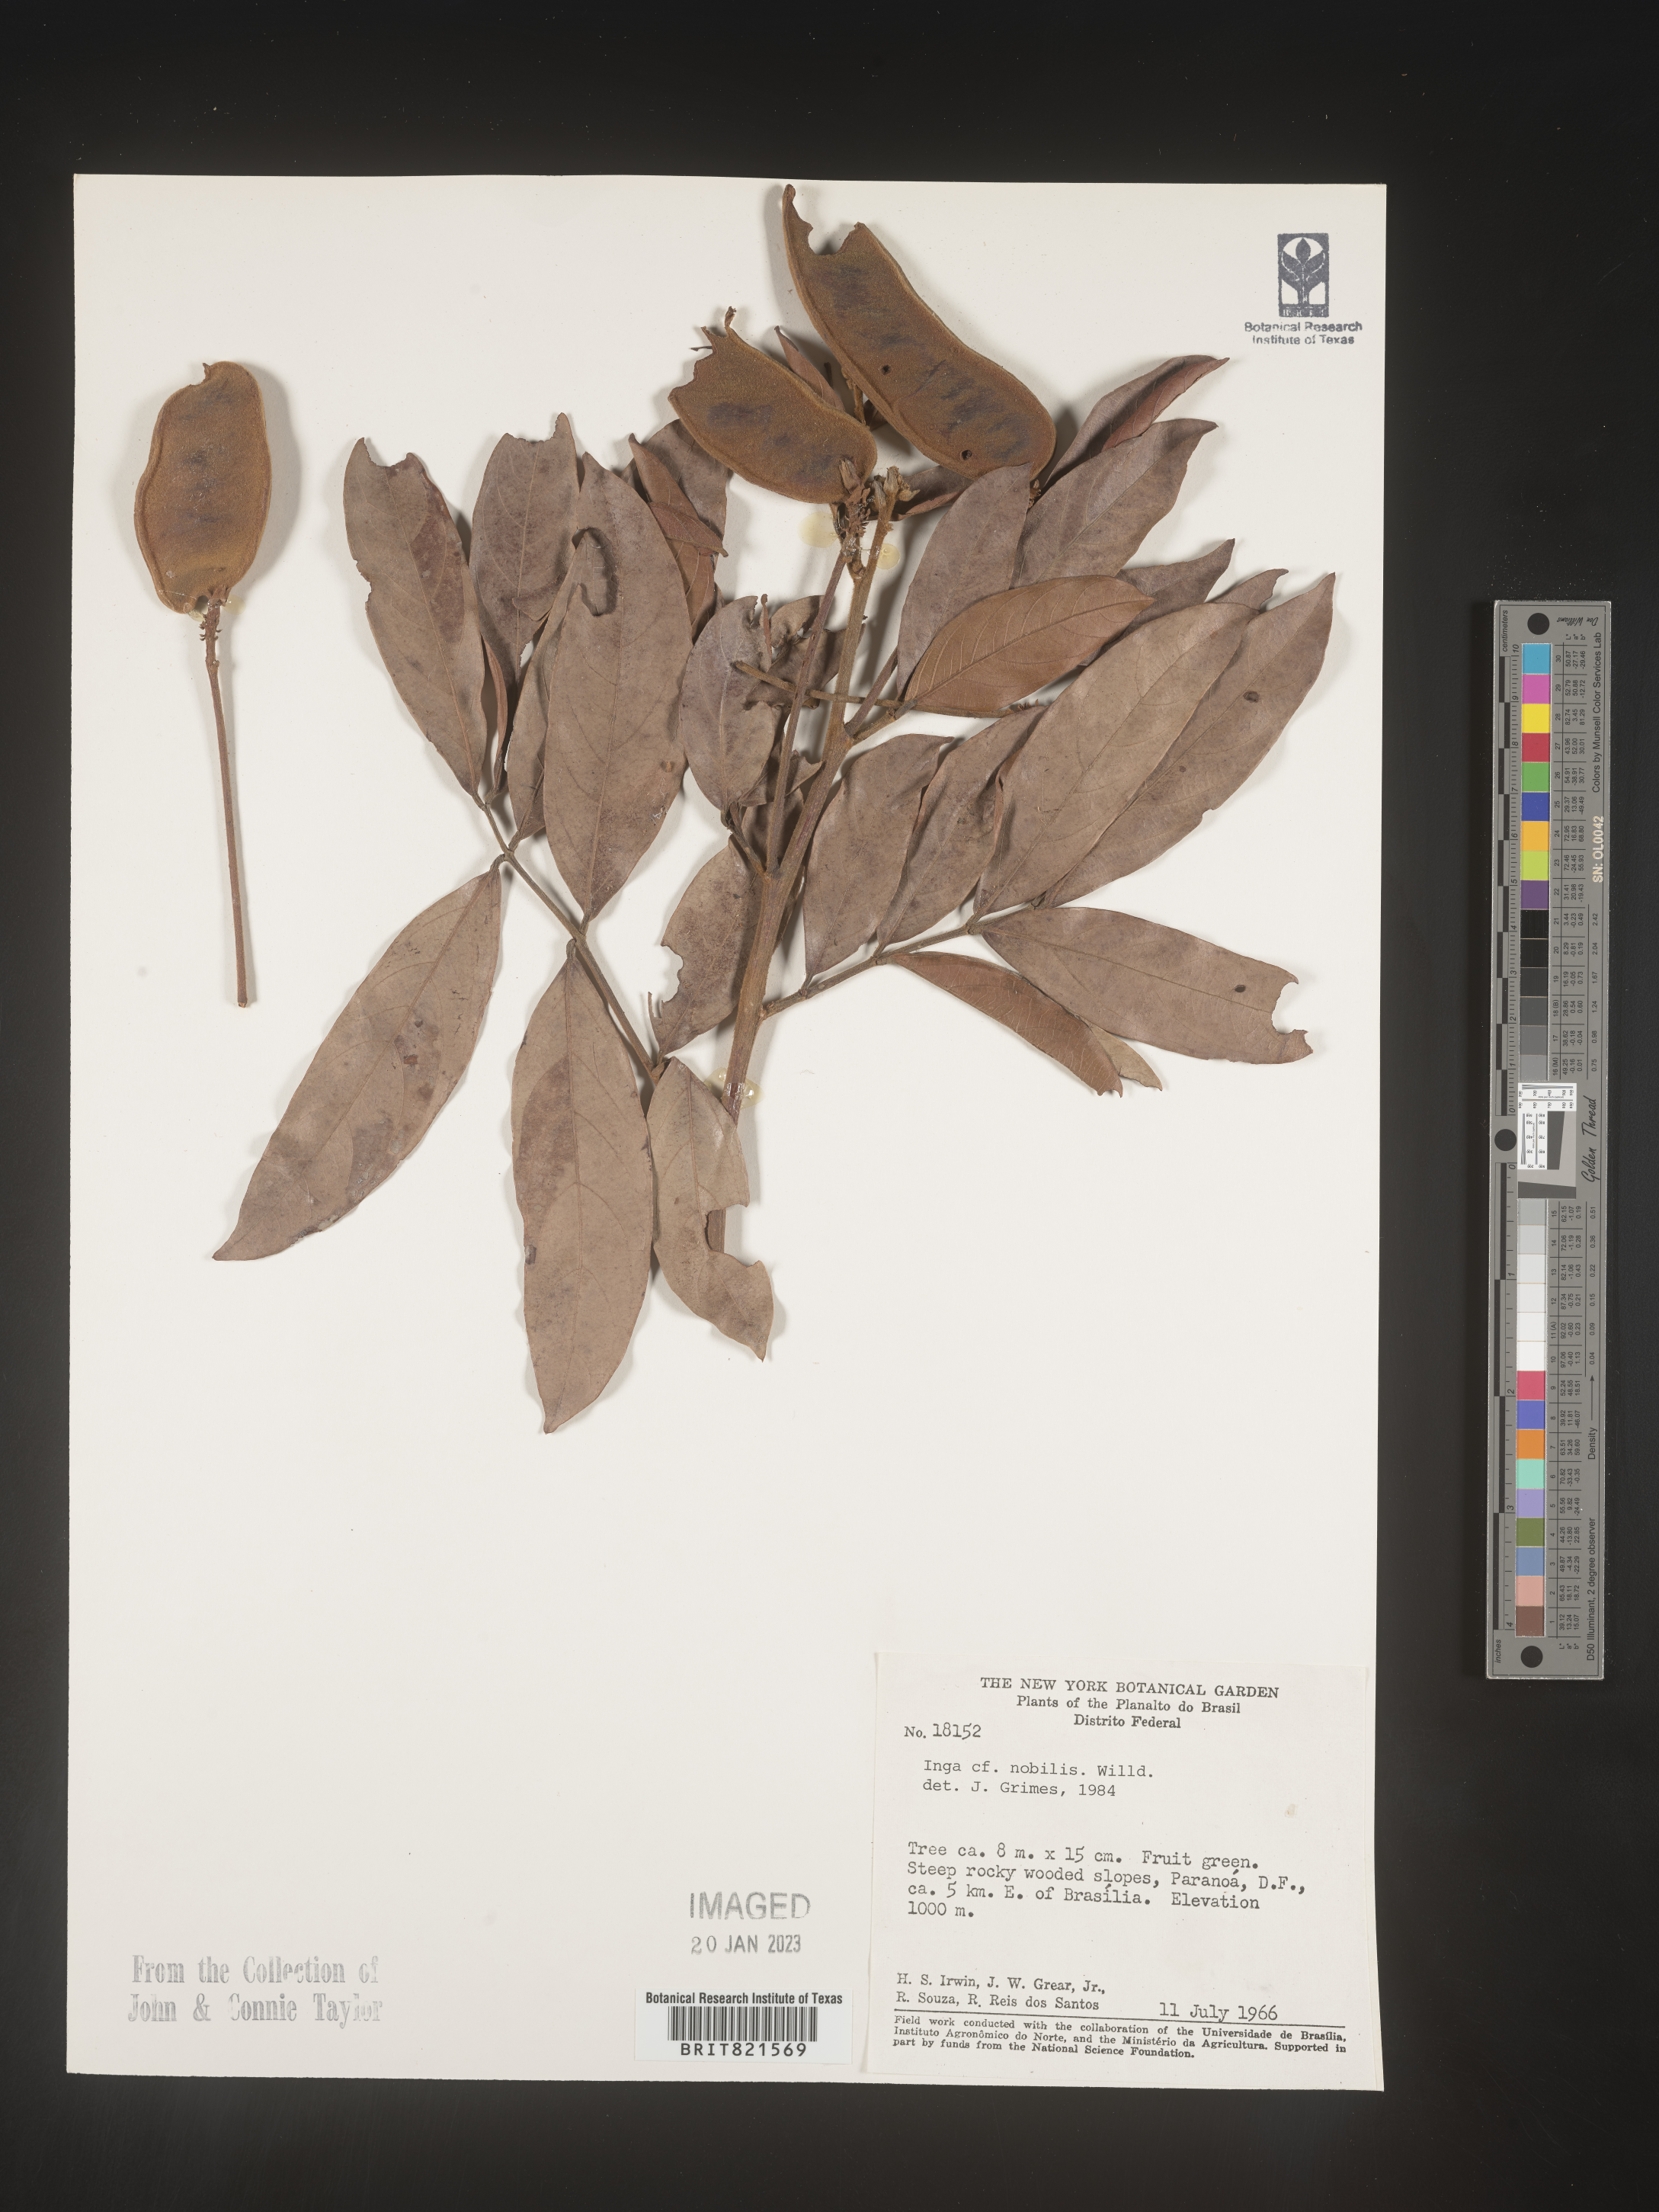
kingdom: Plantae
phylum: Tracheophyta
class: Magnoliopsida
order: Fabales
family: Fabaceae
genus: Inga
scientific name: Inga
